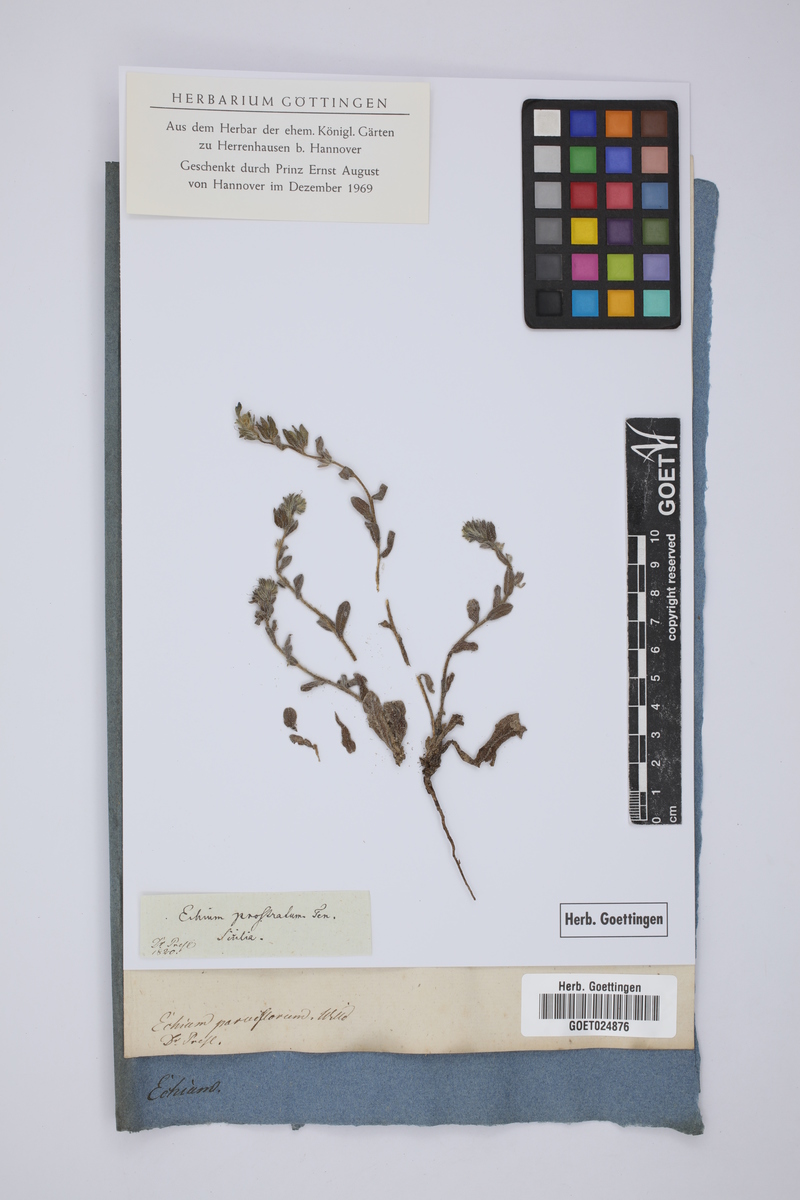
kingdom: Plantae
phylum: Tracheophyta
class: Magnoliopsida
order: Boraginales
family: Boraginaceae
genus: Echium
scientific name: Echium parviflorum
